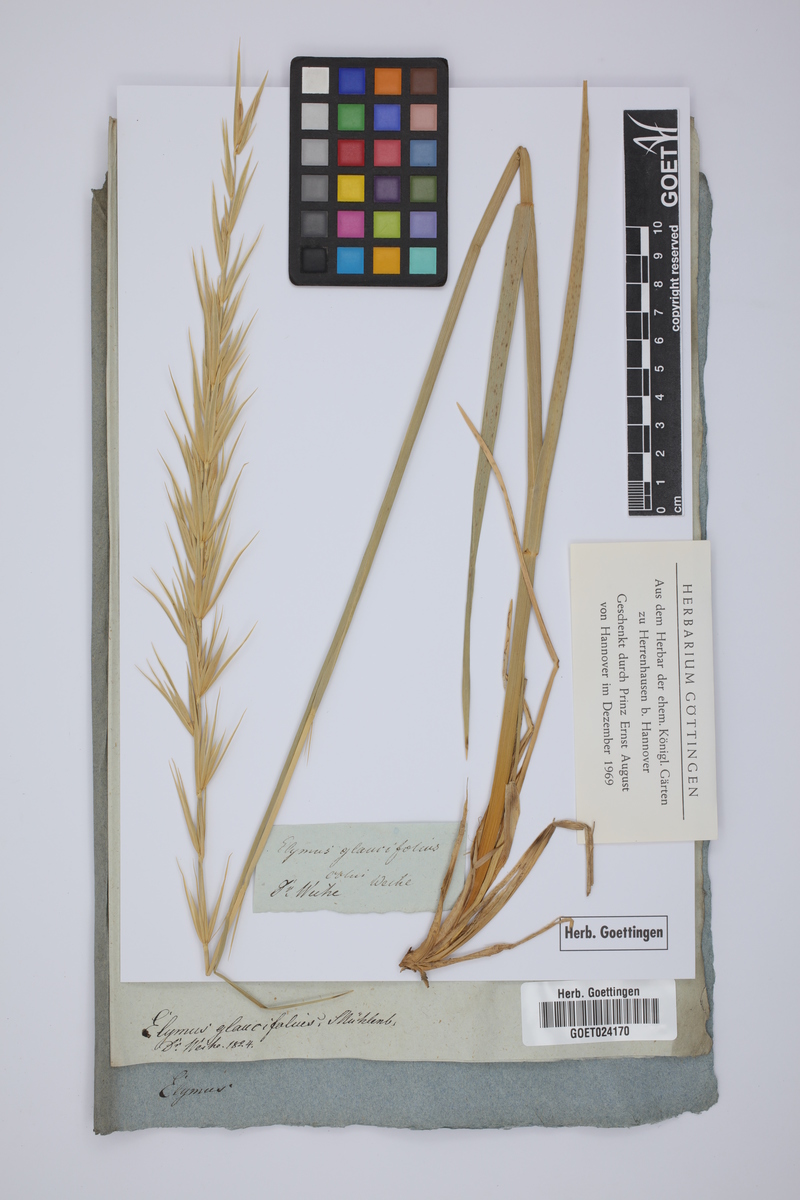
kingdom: Plantae
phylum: Tracheophyta
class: Liliopsida
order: Poales
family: Poaceae
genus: Elymus
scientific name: Elymus canadensis
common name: Canada wild rye
